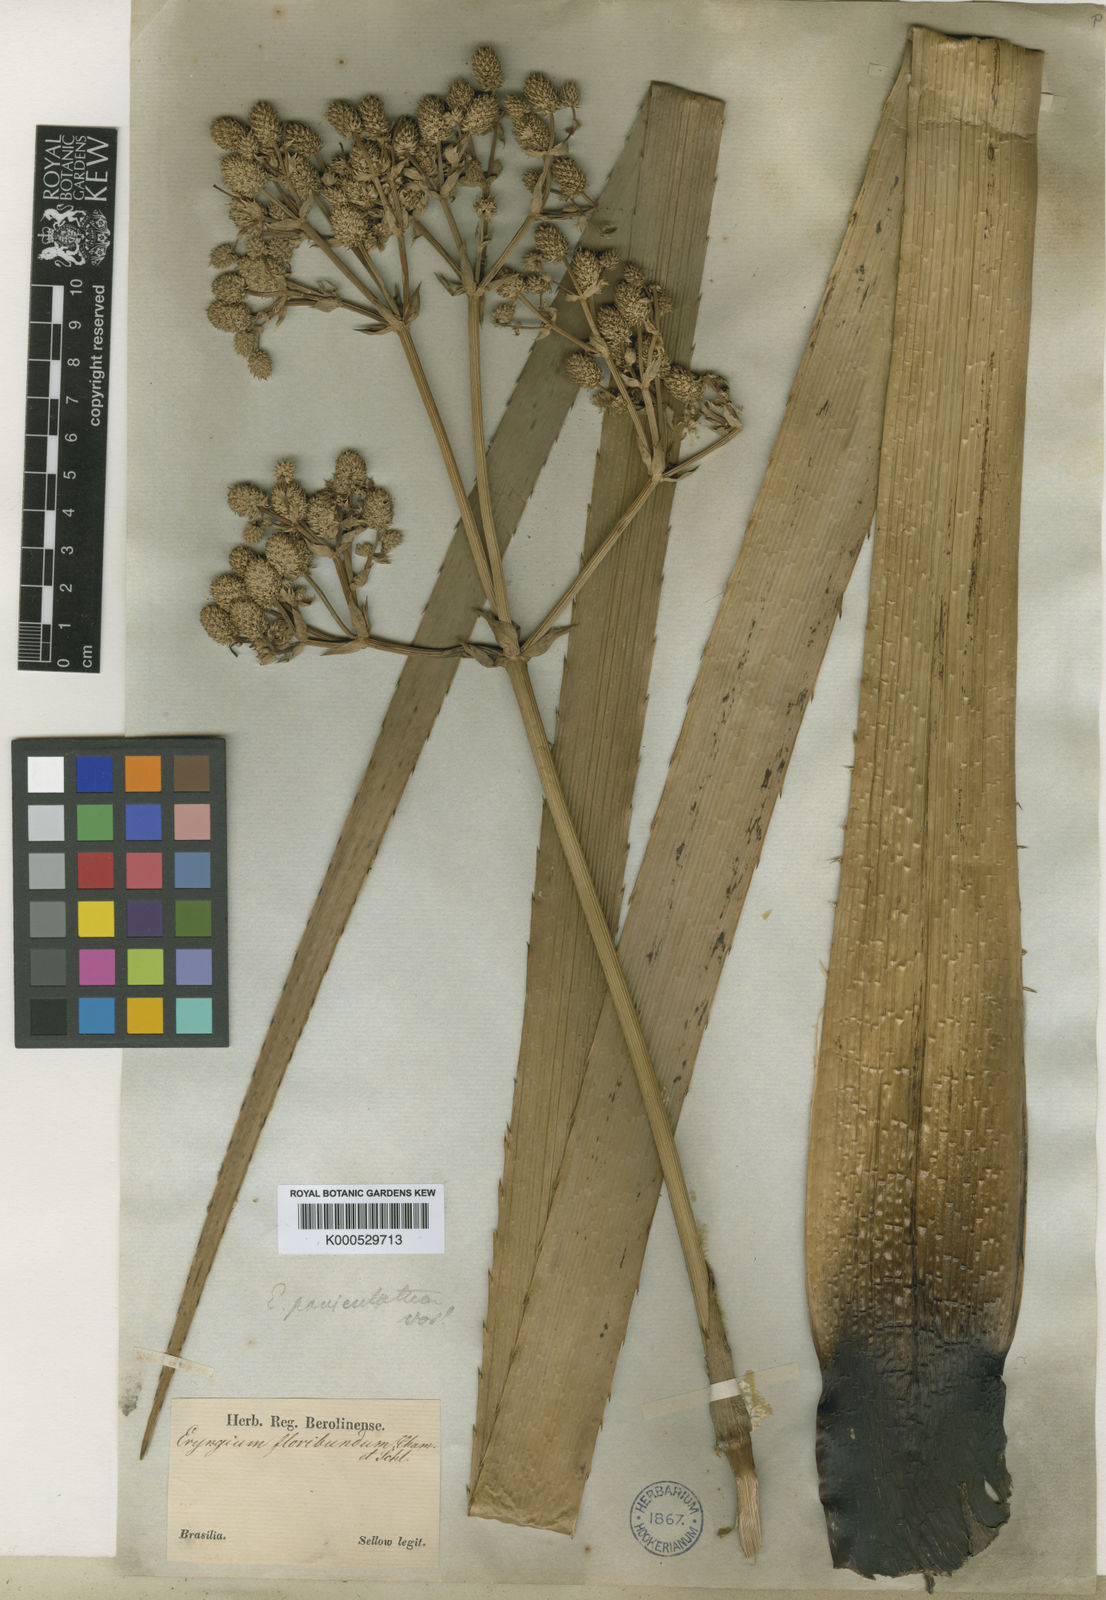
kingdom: Plantae
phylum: Tracheophyta
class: Magnoliopsida
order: Apiales
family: Apiaceae
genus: Eryngium
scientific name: Eryngium chamissonis
